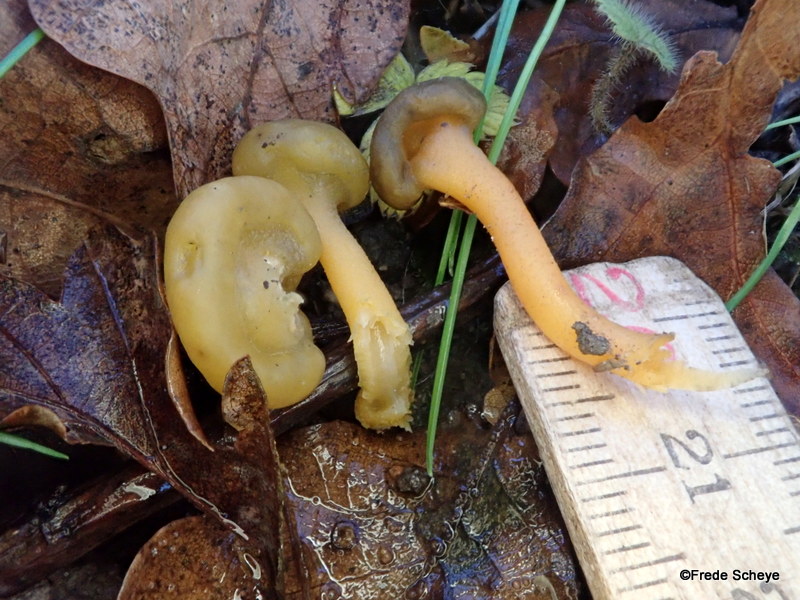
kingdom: Fungi
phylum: Ascomycota
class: Leotiomycetes
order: Leotiales
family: Leotiaceae
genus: Leotia
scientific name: Leotia lubrica
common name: ravsvamp
